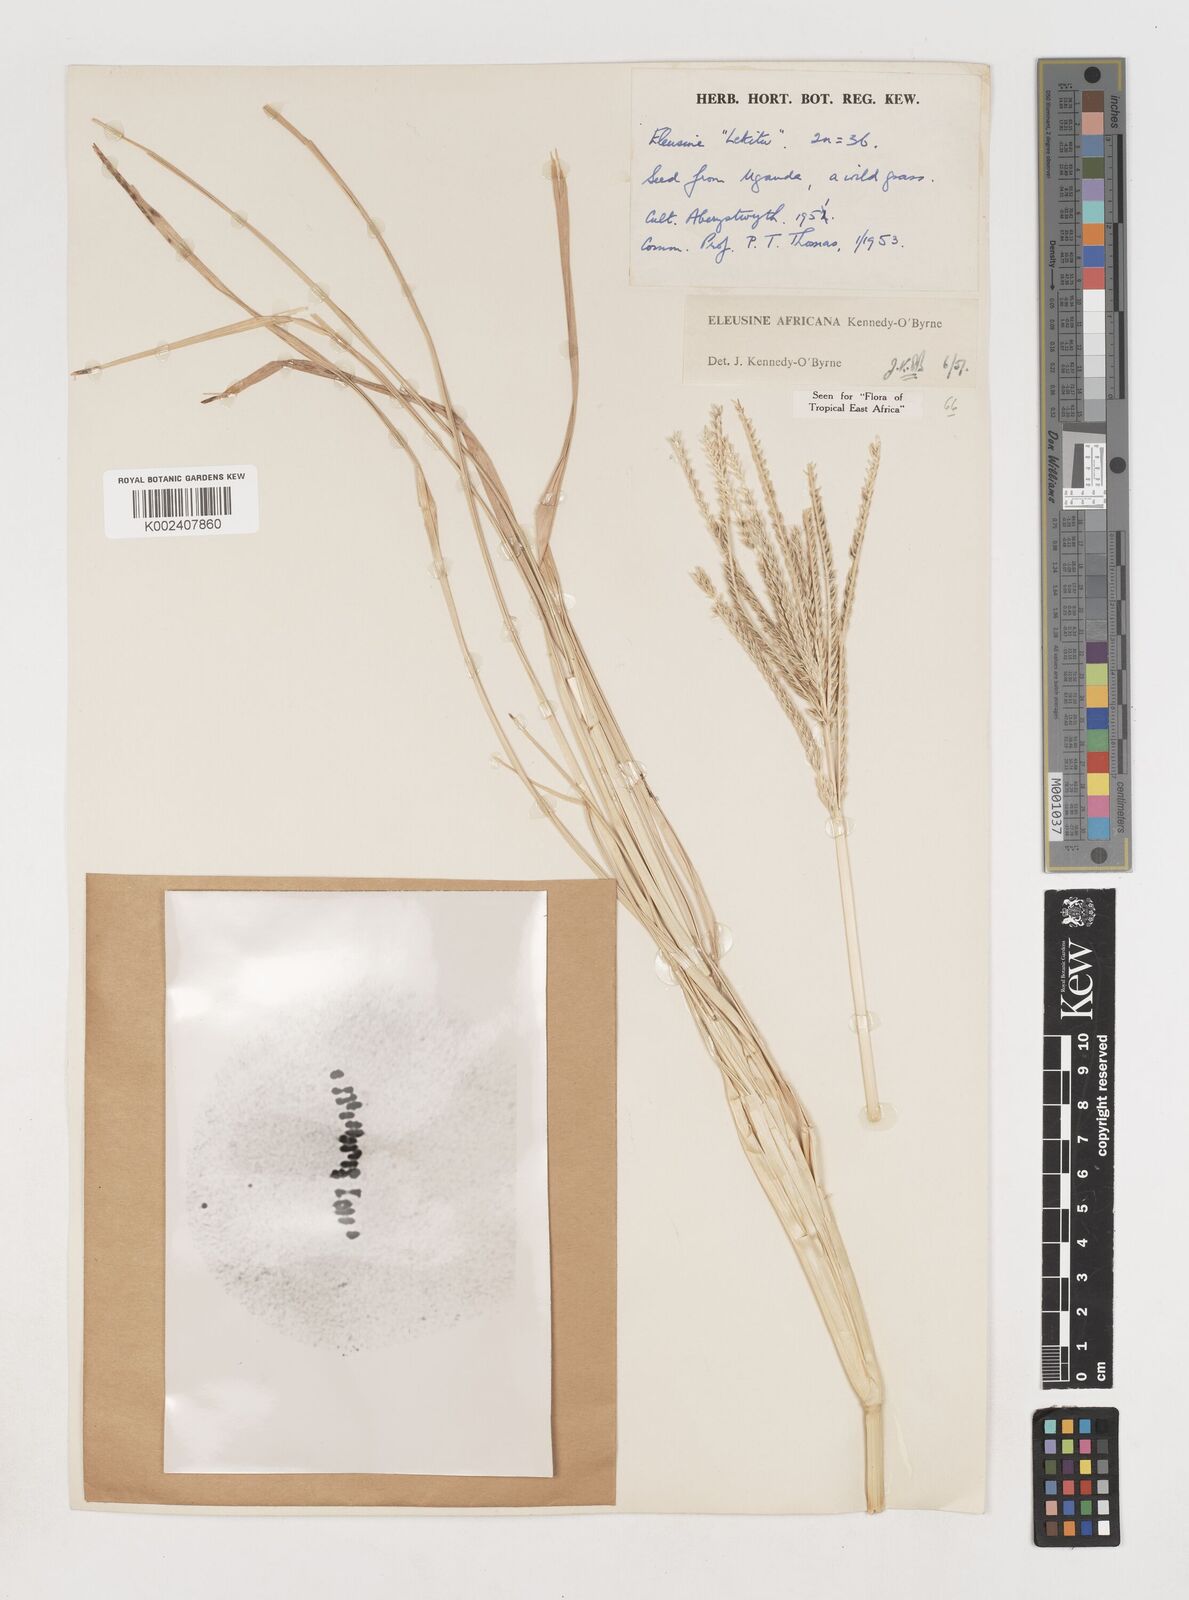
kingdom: Plantae
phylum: Tracheophyta
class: Liliopsida
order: Poales
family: Poaceae
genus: Eleusine
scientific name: Eleusine africana
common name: Wild african finger millet
